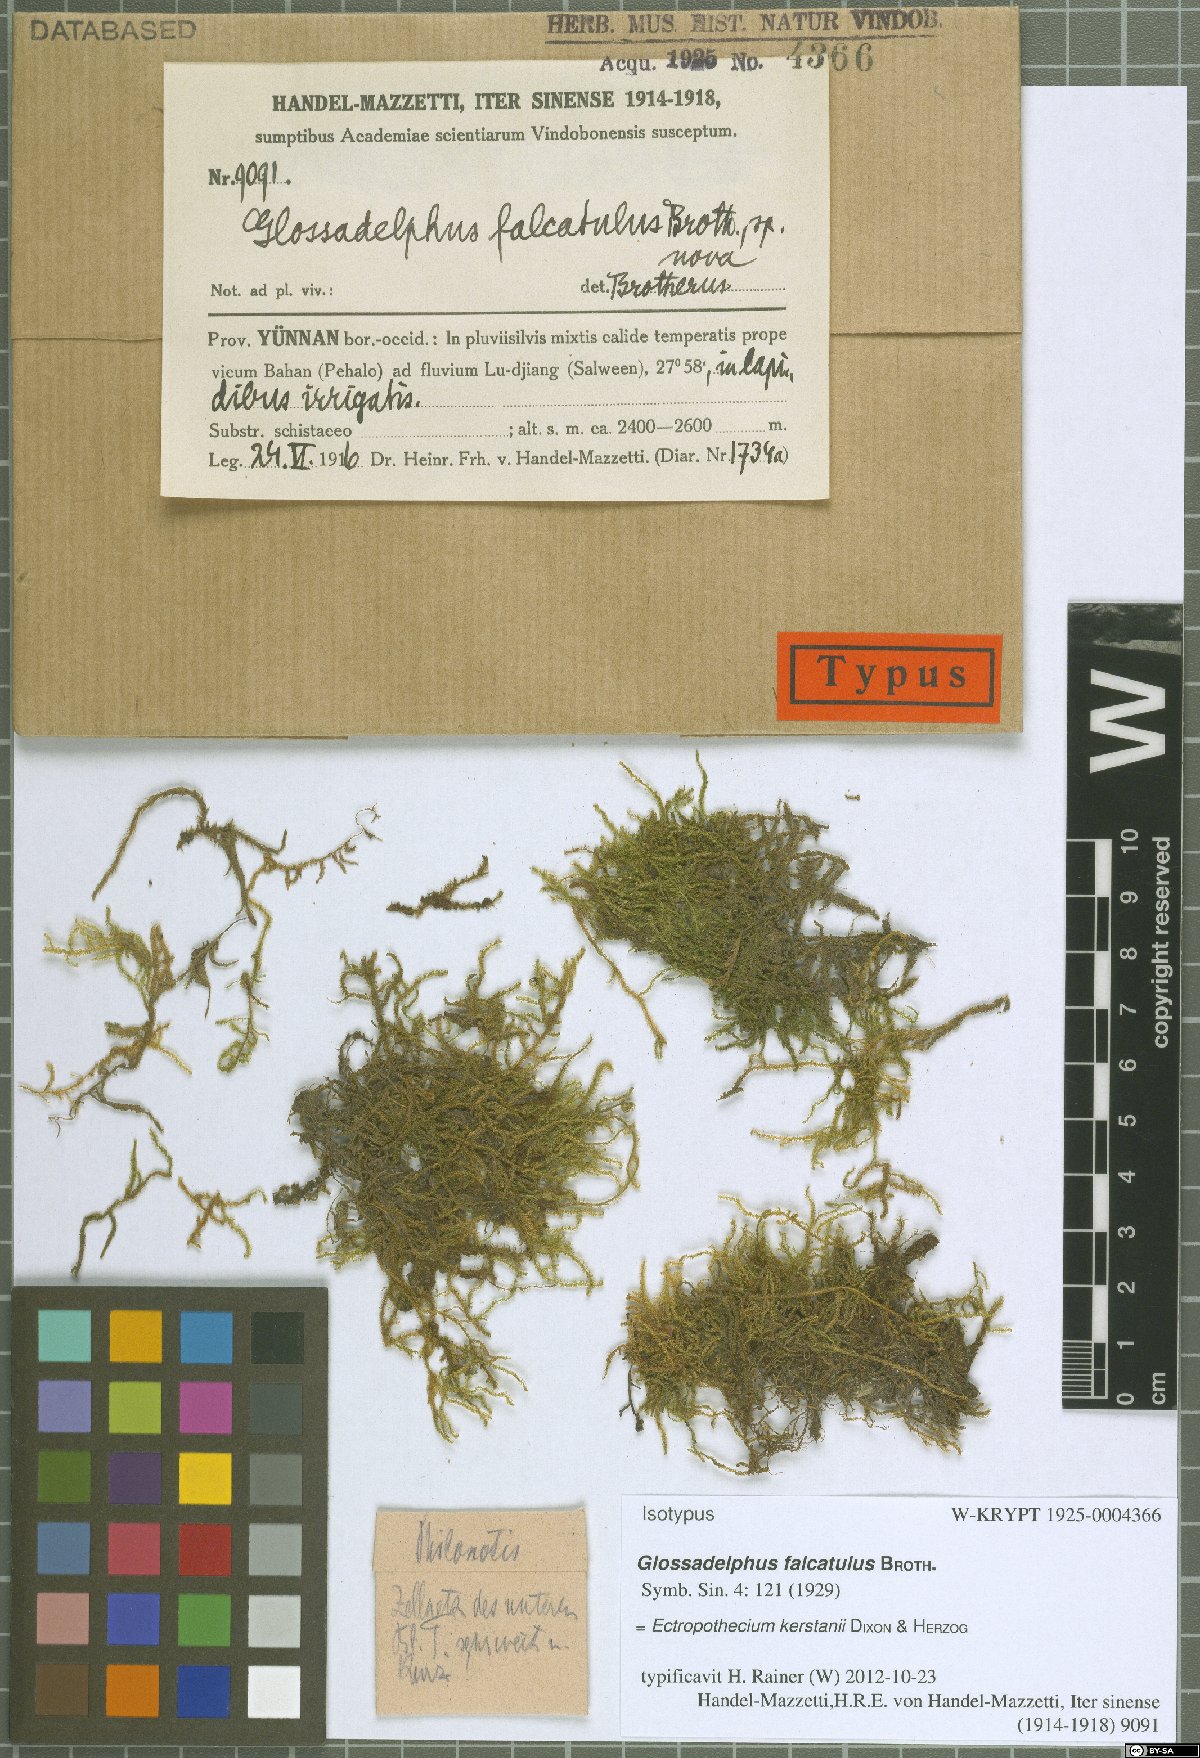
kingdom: Plantae
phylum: Bryophyta
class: Bryopsida
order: Hypnales
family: Hypnaceae
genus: Ectropothecium
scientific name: Ectropothecium falcatulum
